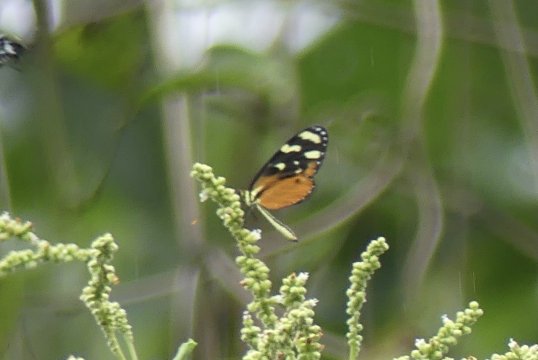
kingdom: Animalia
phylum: Arthropoda
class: Insecta
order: Lepidoptera
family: Nymphalidae
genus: Mechanitis
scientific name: Mechanitis polymnia
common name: Polymnia Tigerwing
